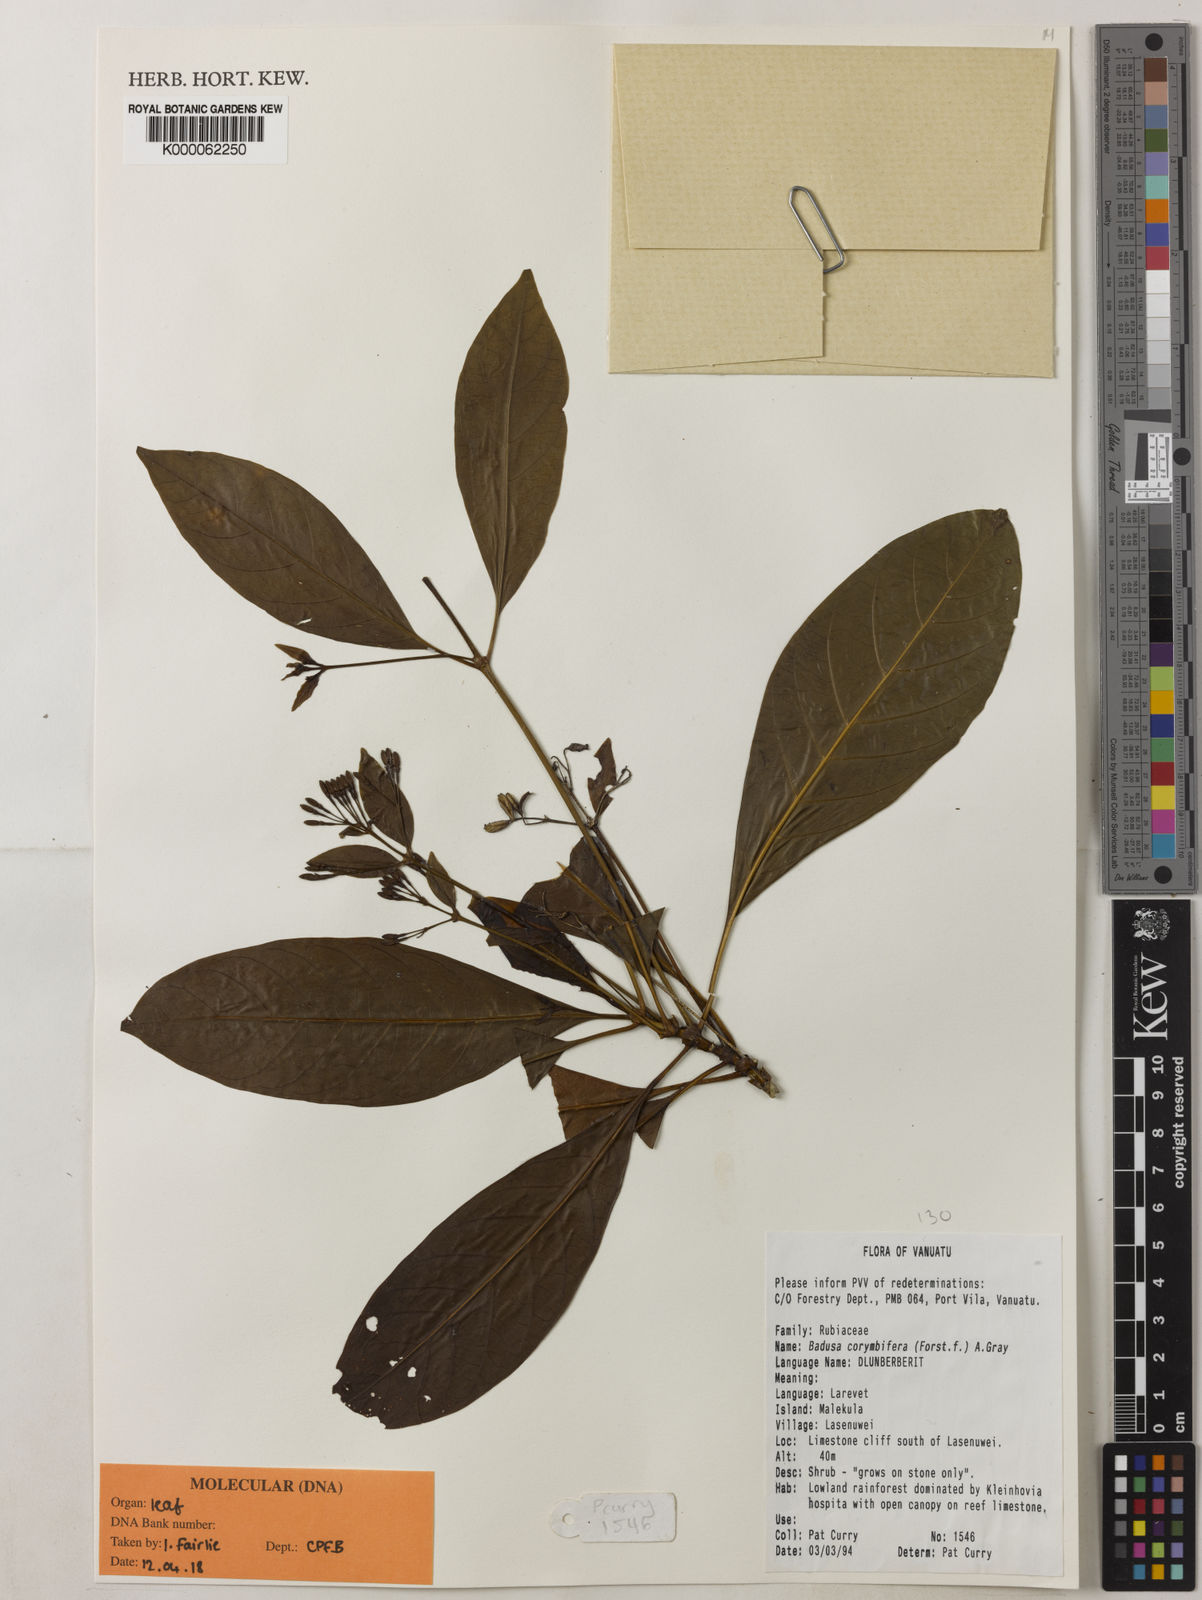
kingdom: Plantae
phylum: Tracheophyta
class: Magnoliopsida
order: Gentianales
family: Rubiaceae
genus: Badusa
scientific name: Badusa corymbifera
